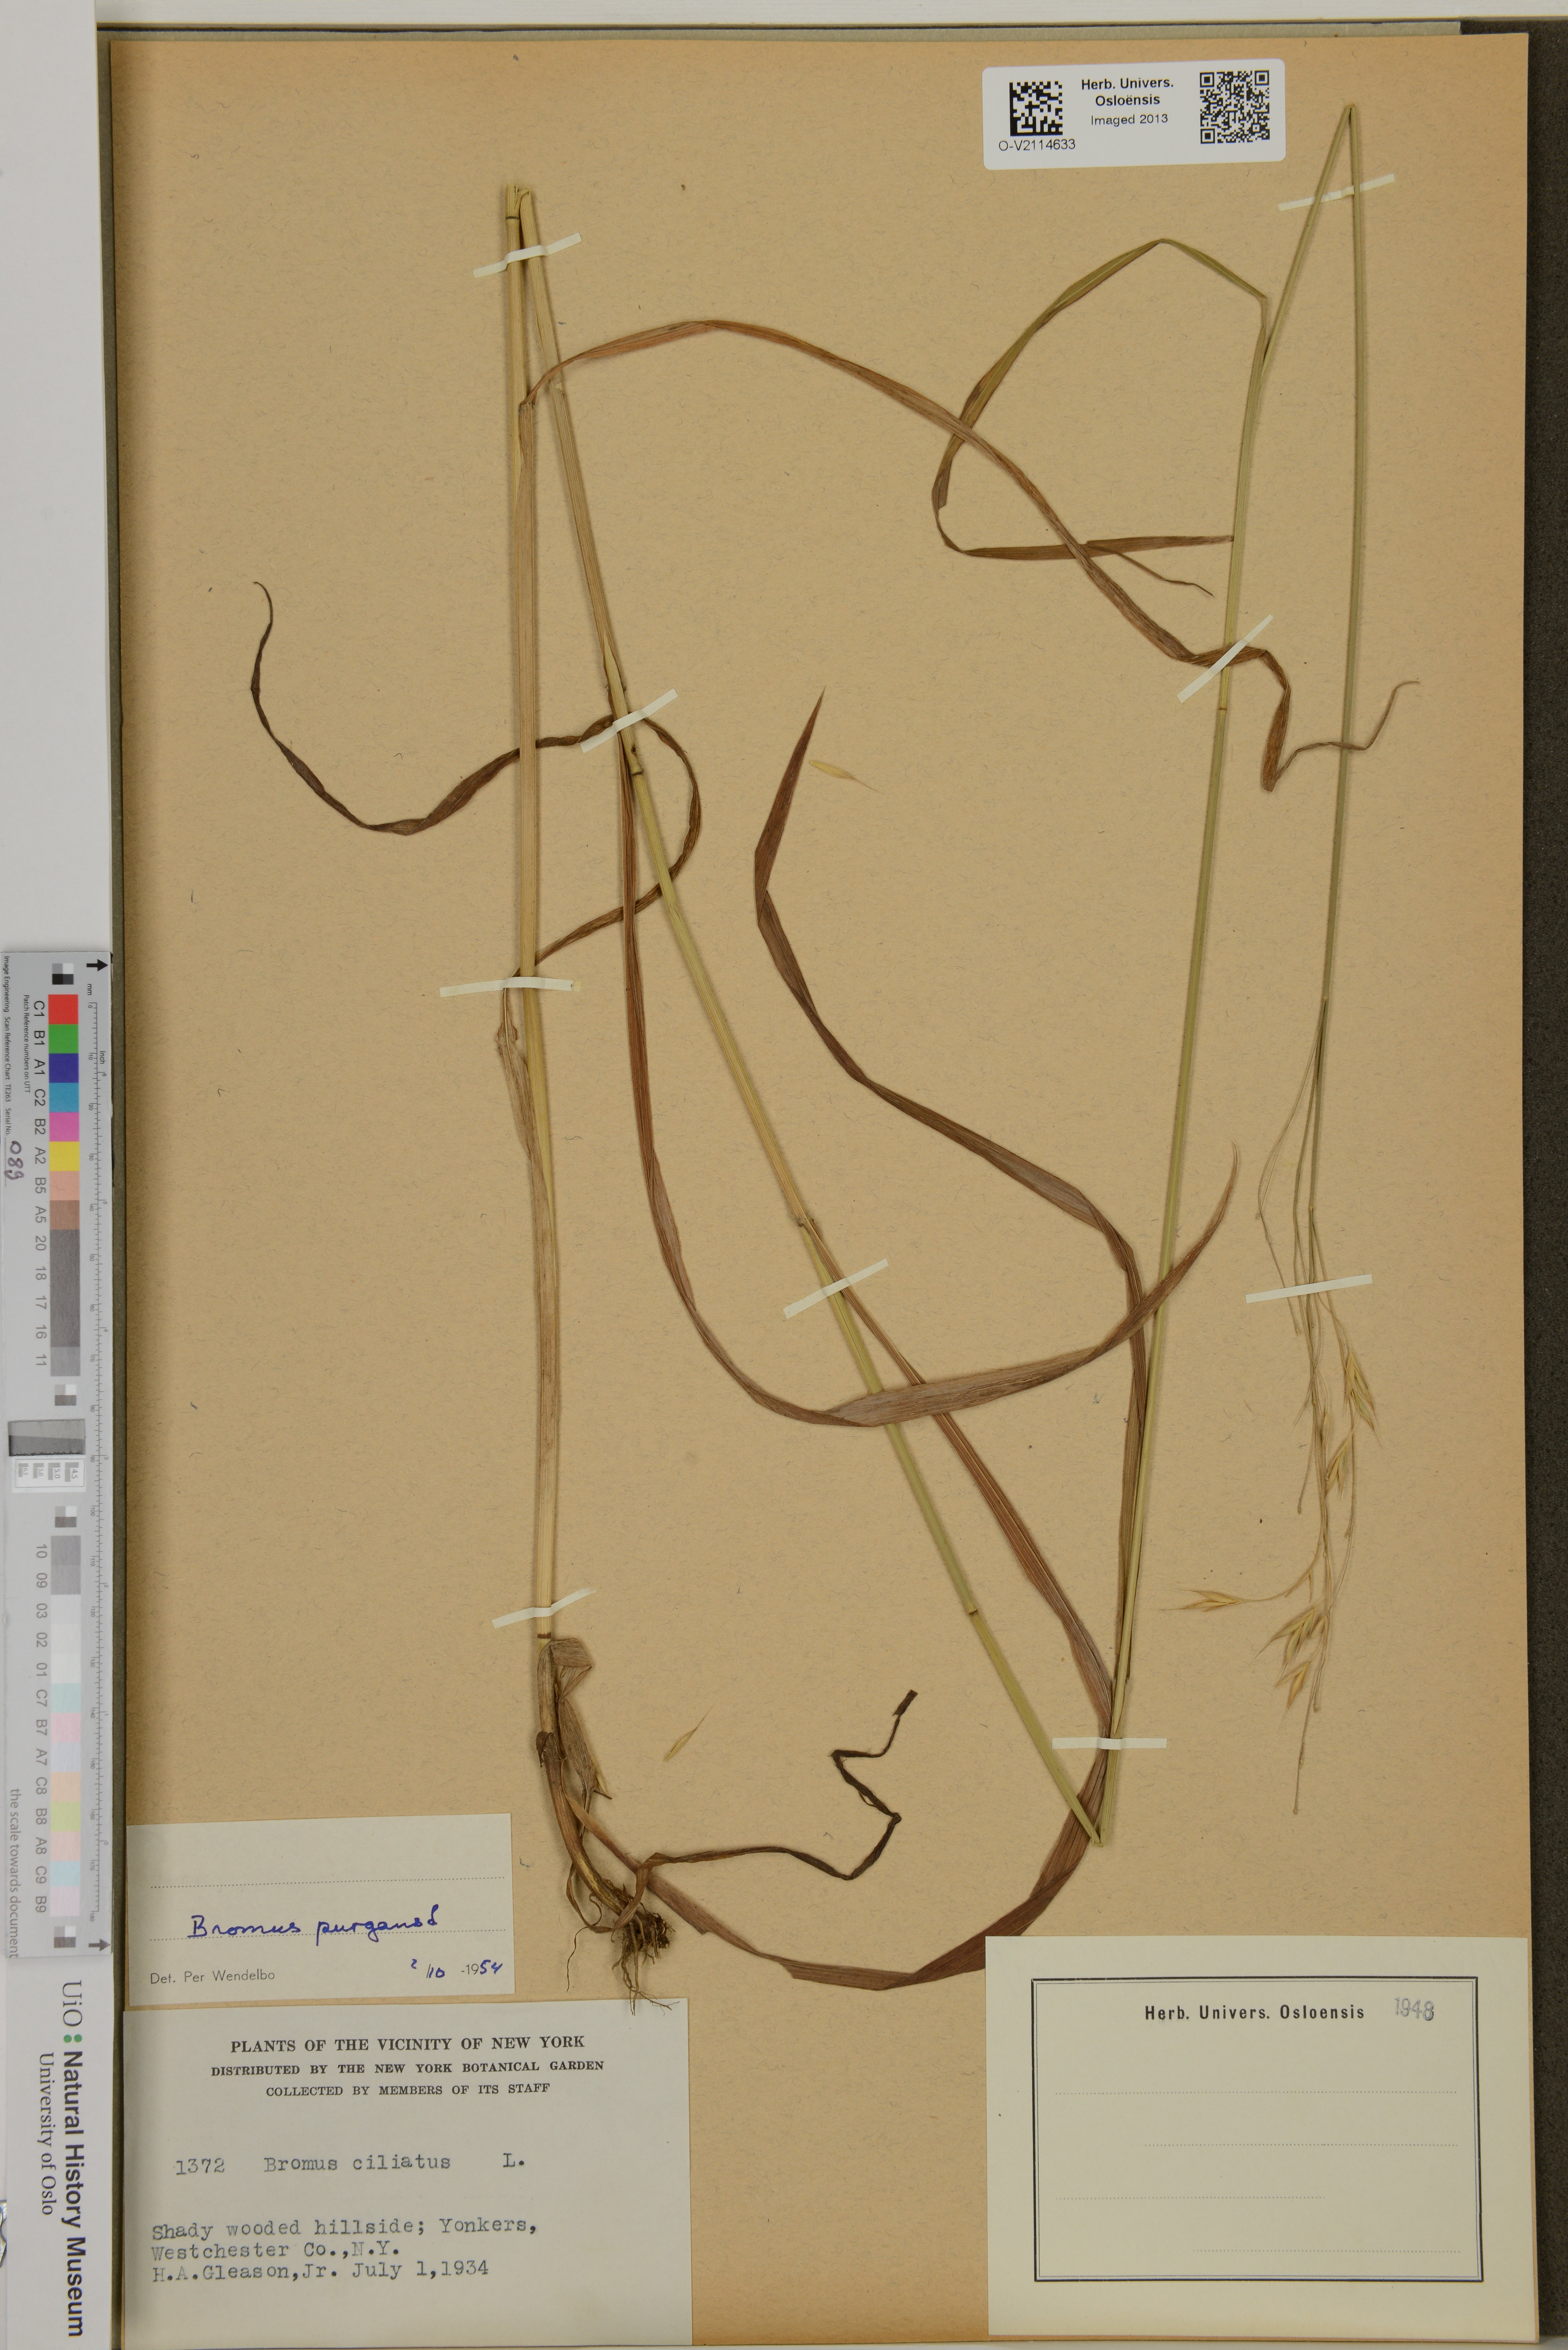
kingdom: Plantae
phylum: Tracheophyta
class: Liliopsida
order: Poales
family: Poaceae
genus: Bromus
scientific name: Bromus pubescens
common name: Hairy wood brome grass
